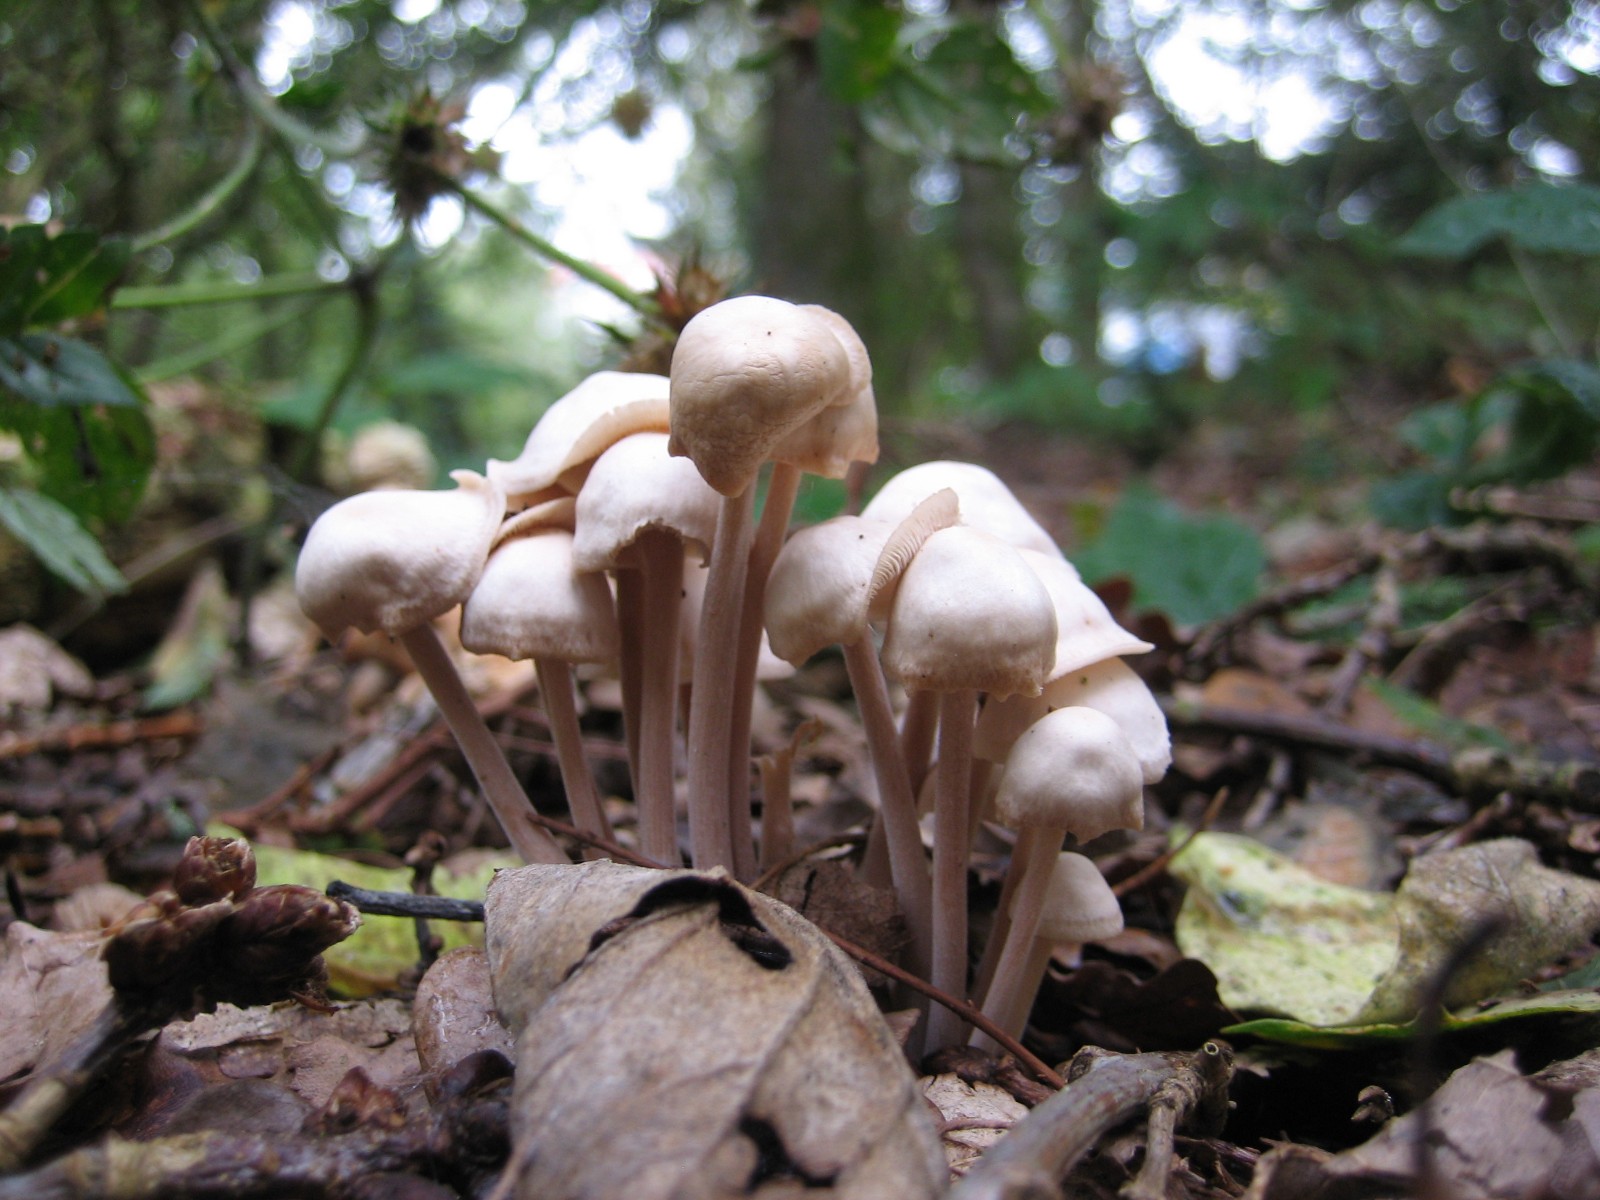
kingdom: Fungi
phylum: Basidiomycota
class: Agaricomycetes
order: Agaricales
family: Omphalotaceae
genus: Collybiopsis
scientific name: Collybiopsis confluens
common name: knippe-fladhat
